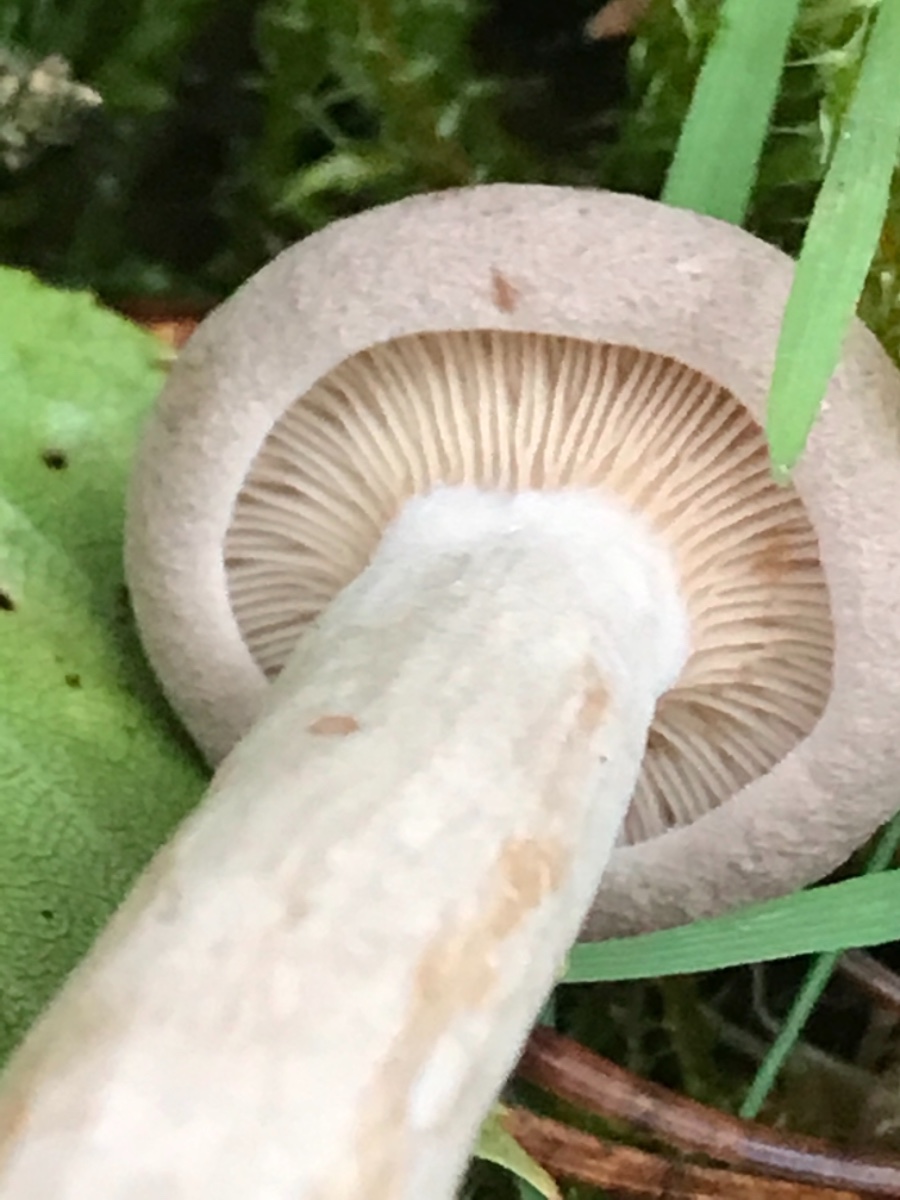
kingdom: Fungi
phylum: Basidiomycota
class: Agaricomycetes
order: Russulales
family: Russulaceae
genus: Lactarius
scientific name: Lactarius glyciosmus
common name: kokos-mælkehat
